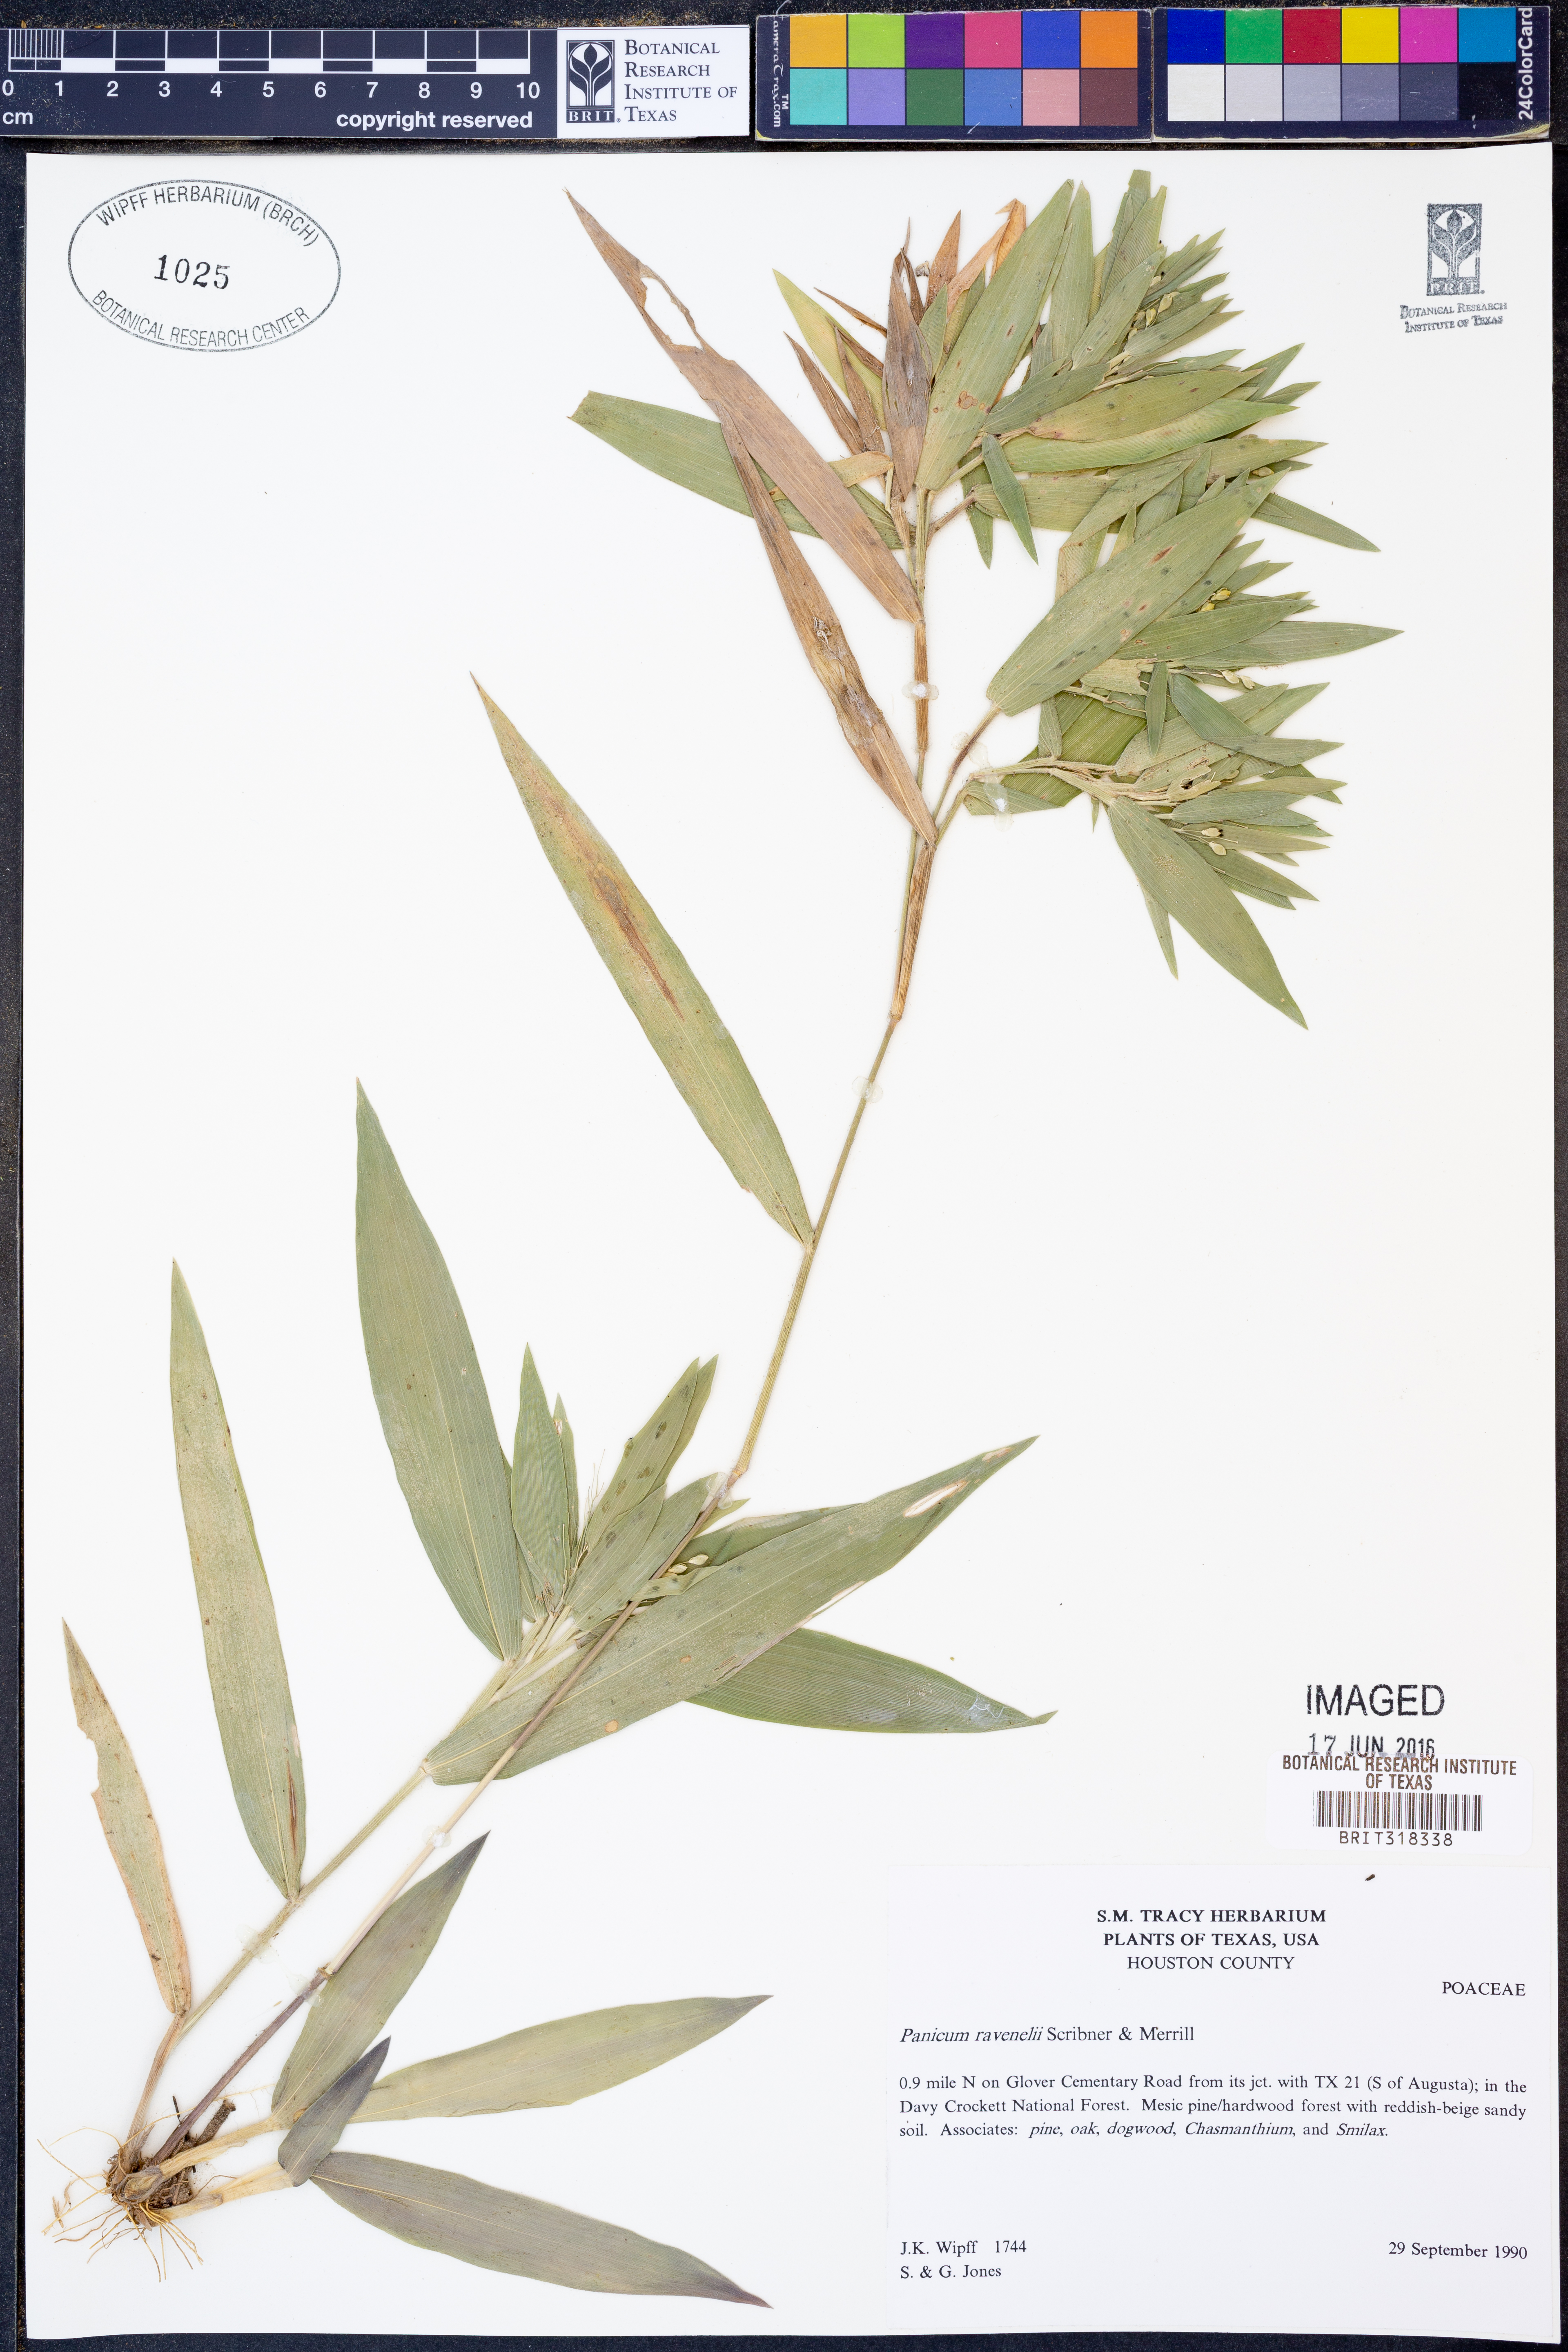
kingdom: Plantae
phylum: Tracheophyta
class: Liliopsida
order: Poales
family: Poaceae
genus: Dichanthelium
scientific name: Dichanthelium ravenelii
